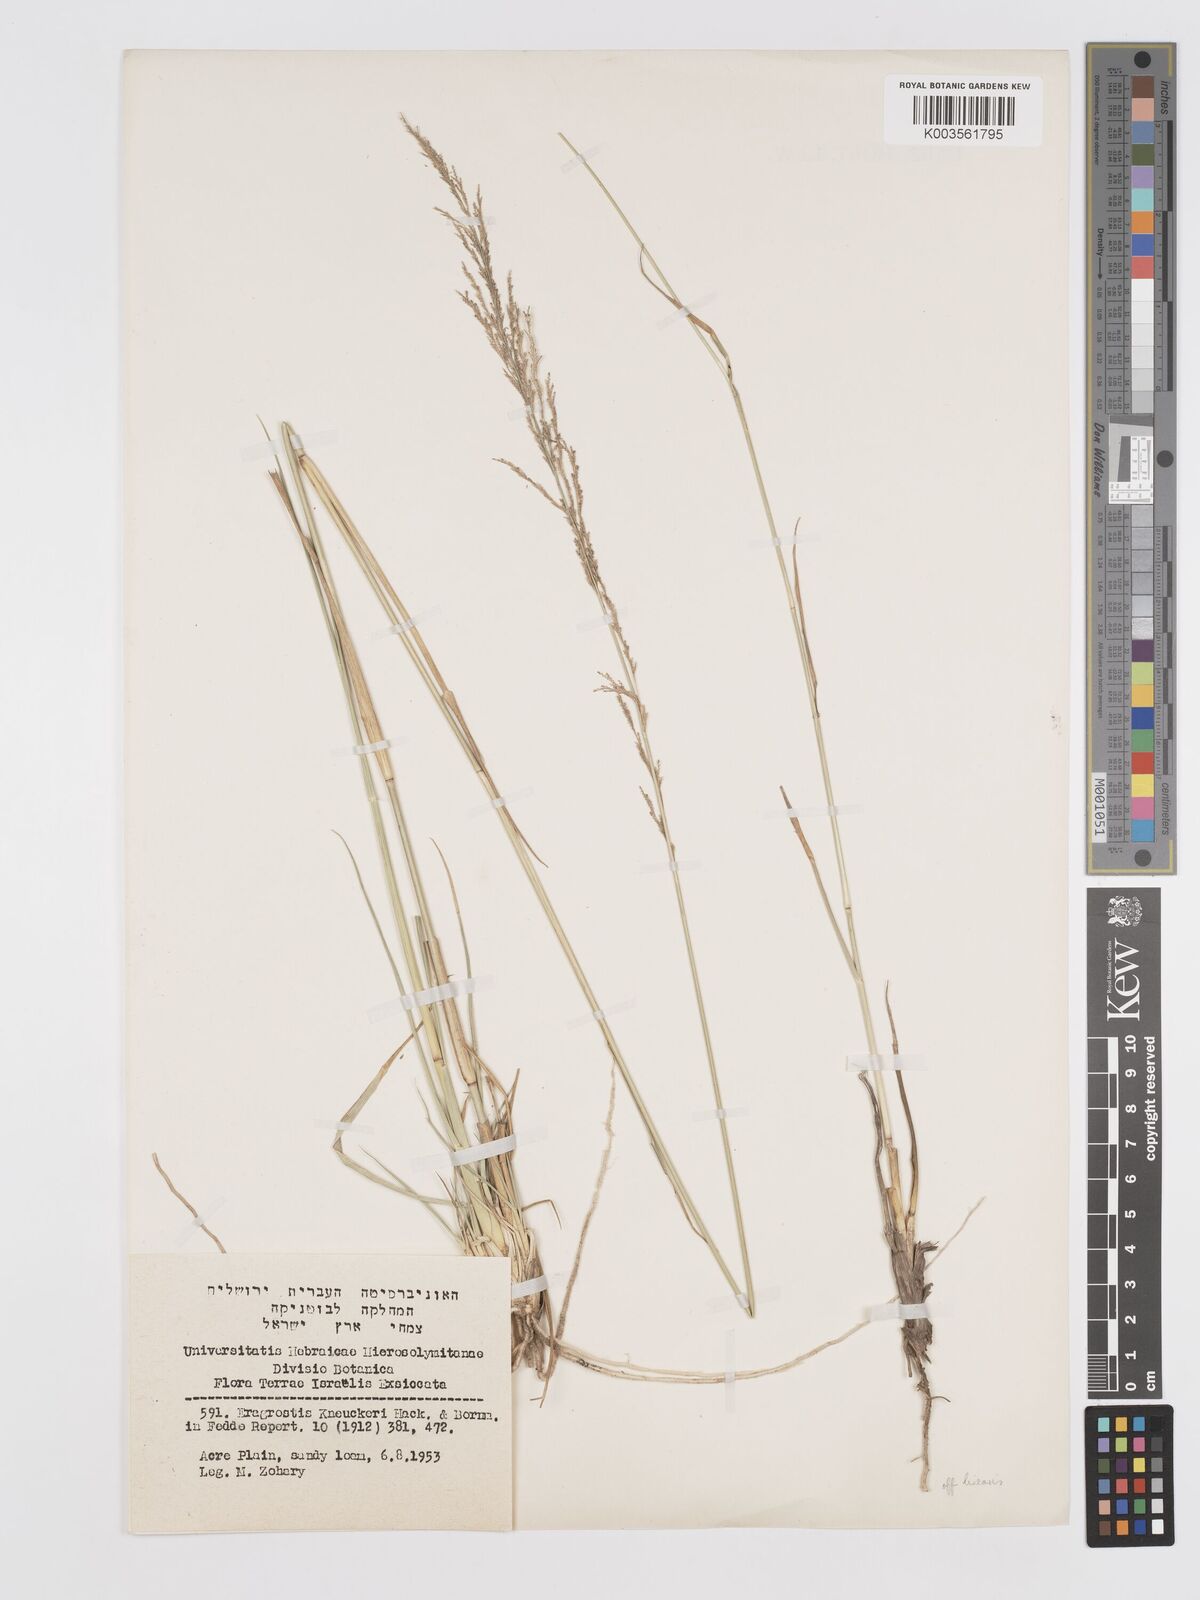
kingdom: Plantae
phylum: Tracheophyta
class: Liliopsida
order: Poales
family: Poaceae
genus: Eragrostis
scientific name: Eragrostis
